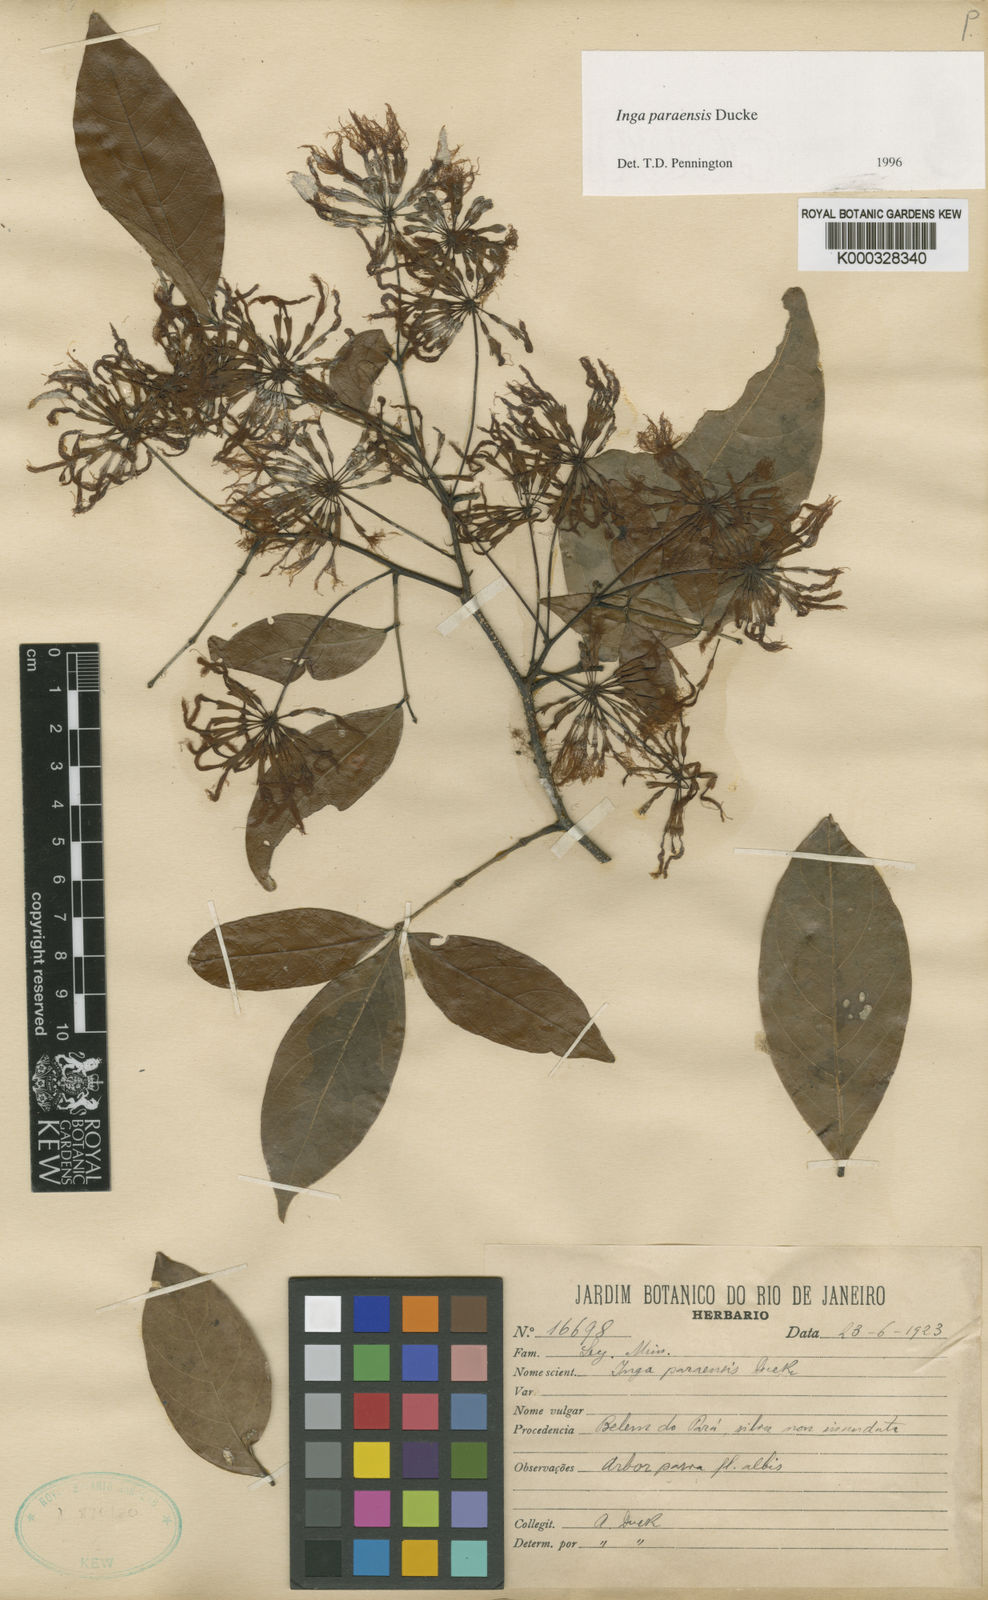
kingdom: Plantae
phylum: Tracheophyta
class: Magnoliopsida
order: Fabales
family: Fabaceae
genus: Inga
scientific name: Inga paraensis
